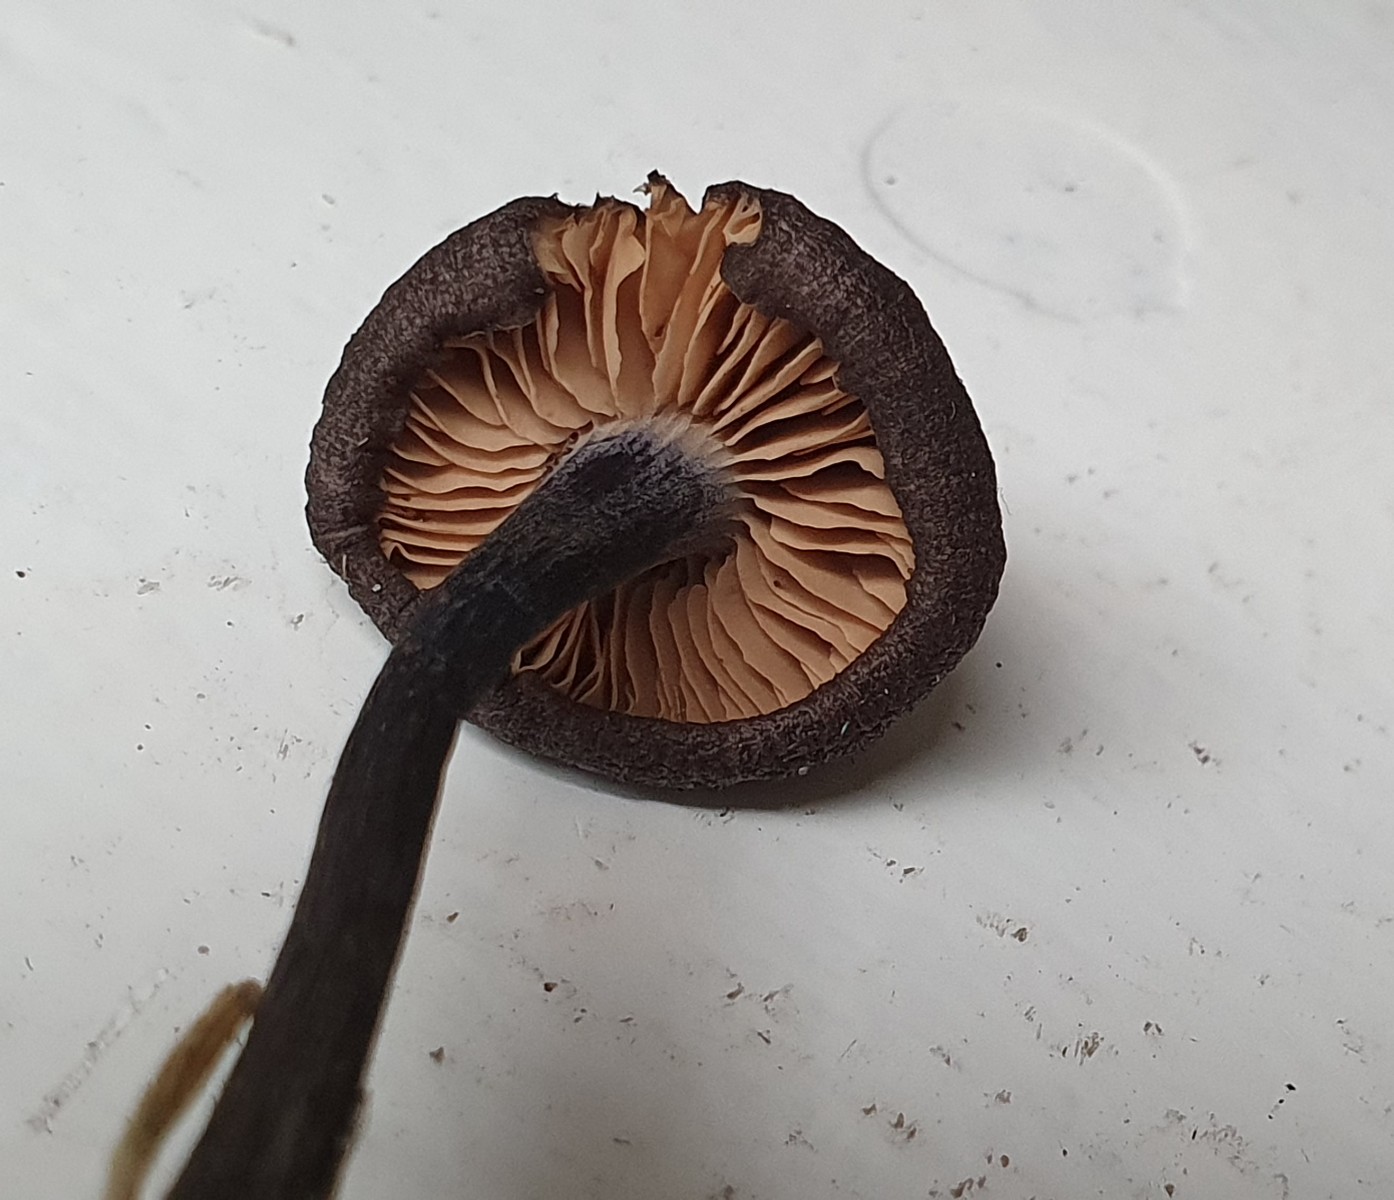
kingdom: Fungi
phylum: Basidiomycota
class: Agaricomycetes
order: Agaricales
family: Entolomataceae
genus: Entoloma
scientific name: Entoloma lampropus
